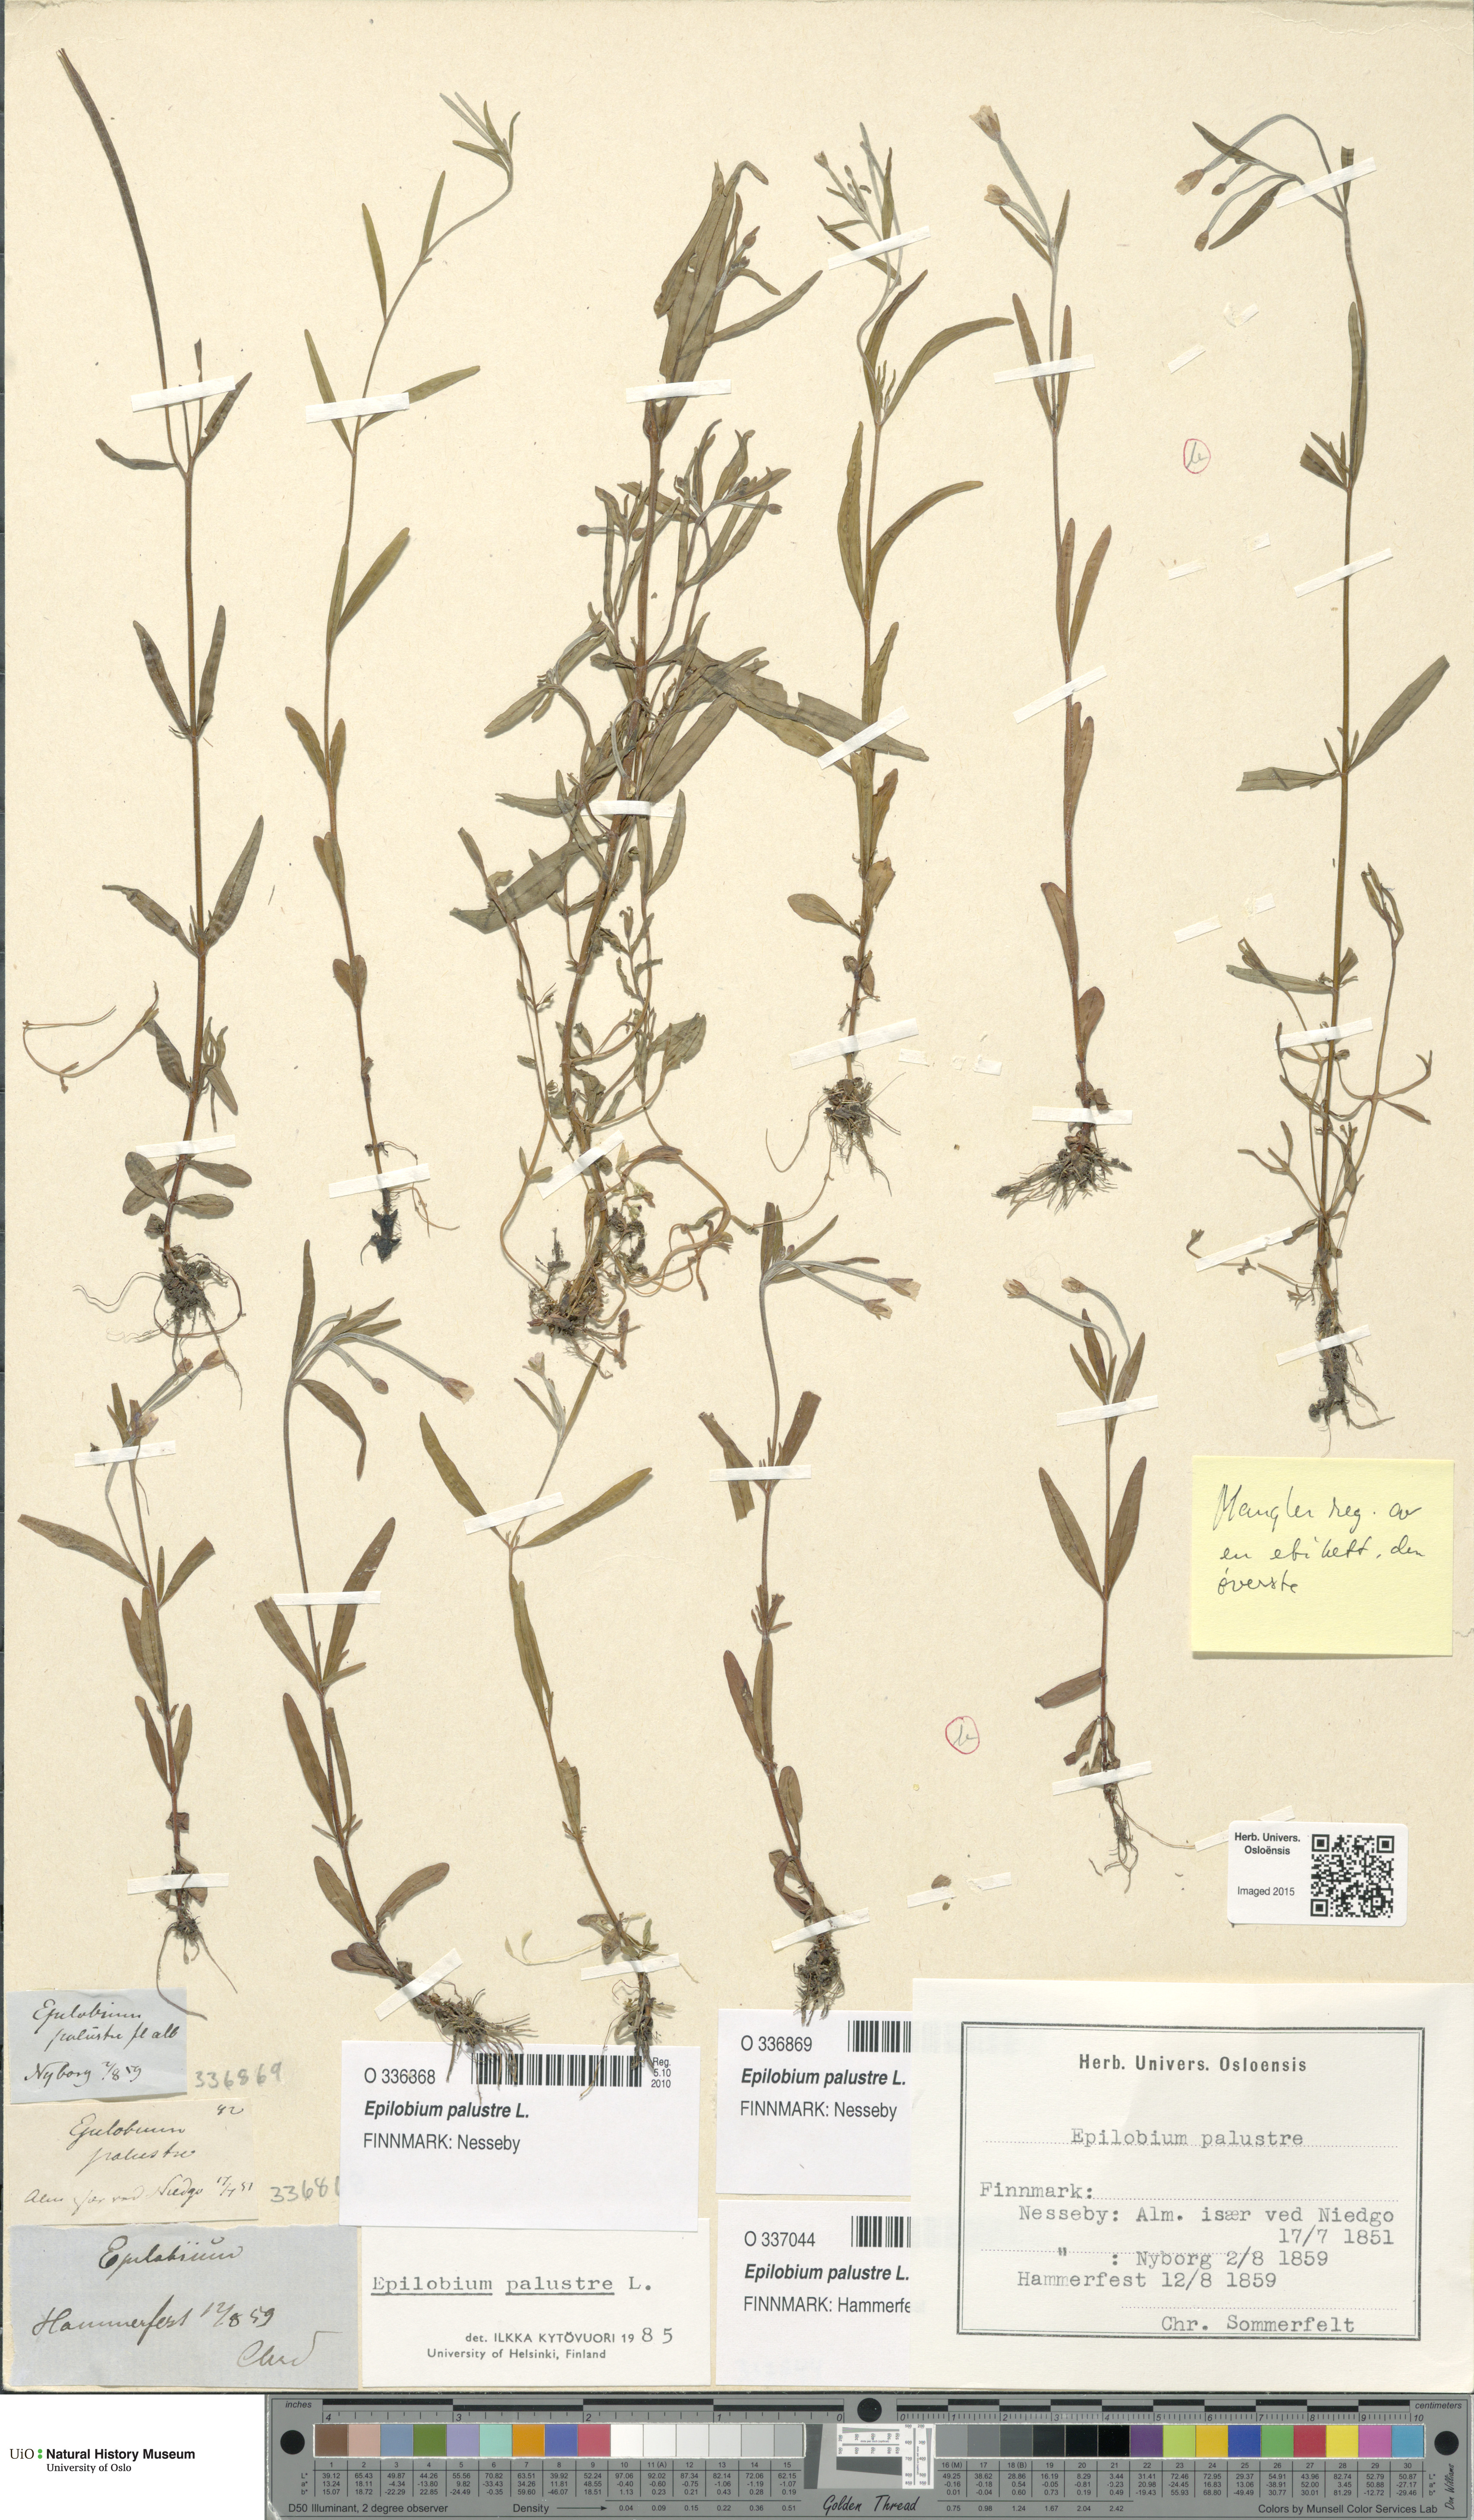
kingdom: Plantae
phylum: Tracheophyta
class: Magnoliopsida
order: Myrtales
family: Onagraceae
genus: Epilobium
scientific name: Epilobium palustre
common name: Marsh willowherb
